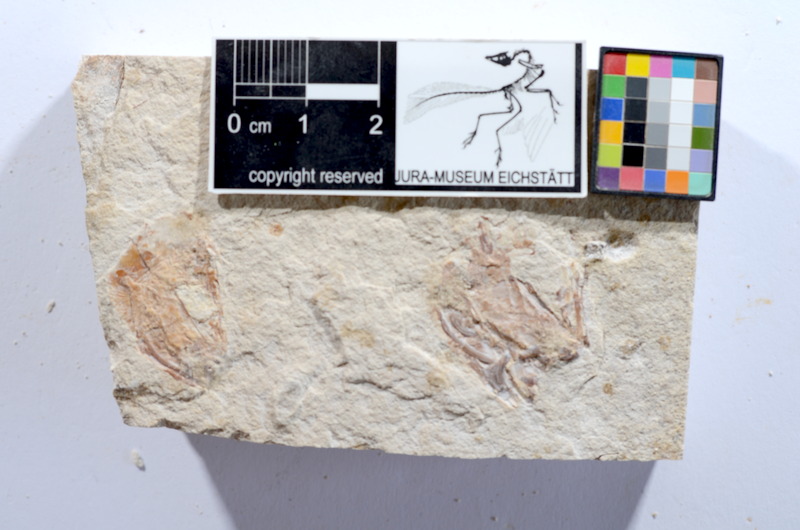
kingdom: Animalia
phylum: Chordata
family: Ascalaboidae
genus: Tharsis
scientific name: Tharsis dubius
